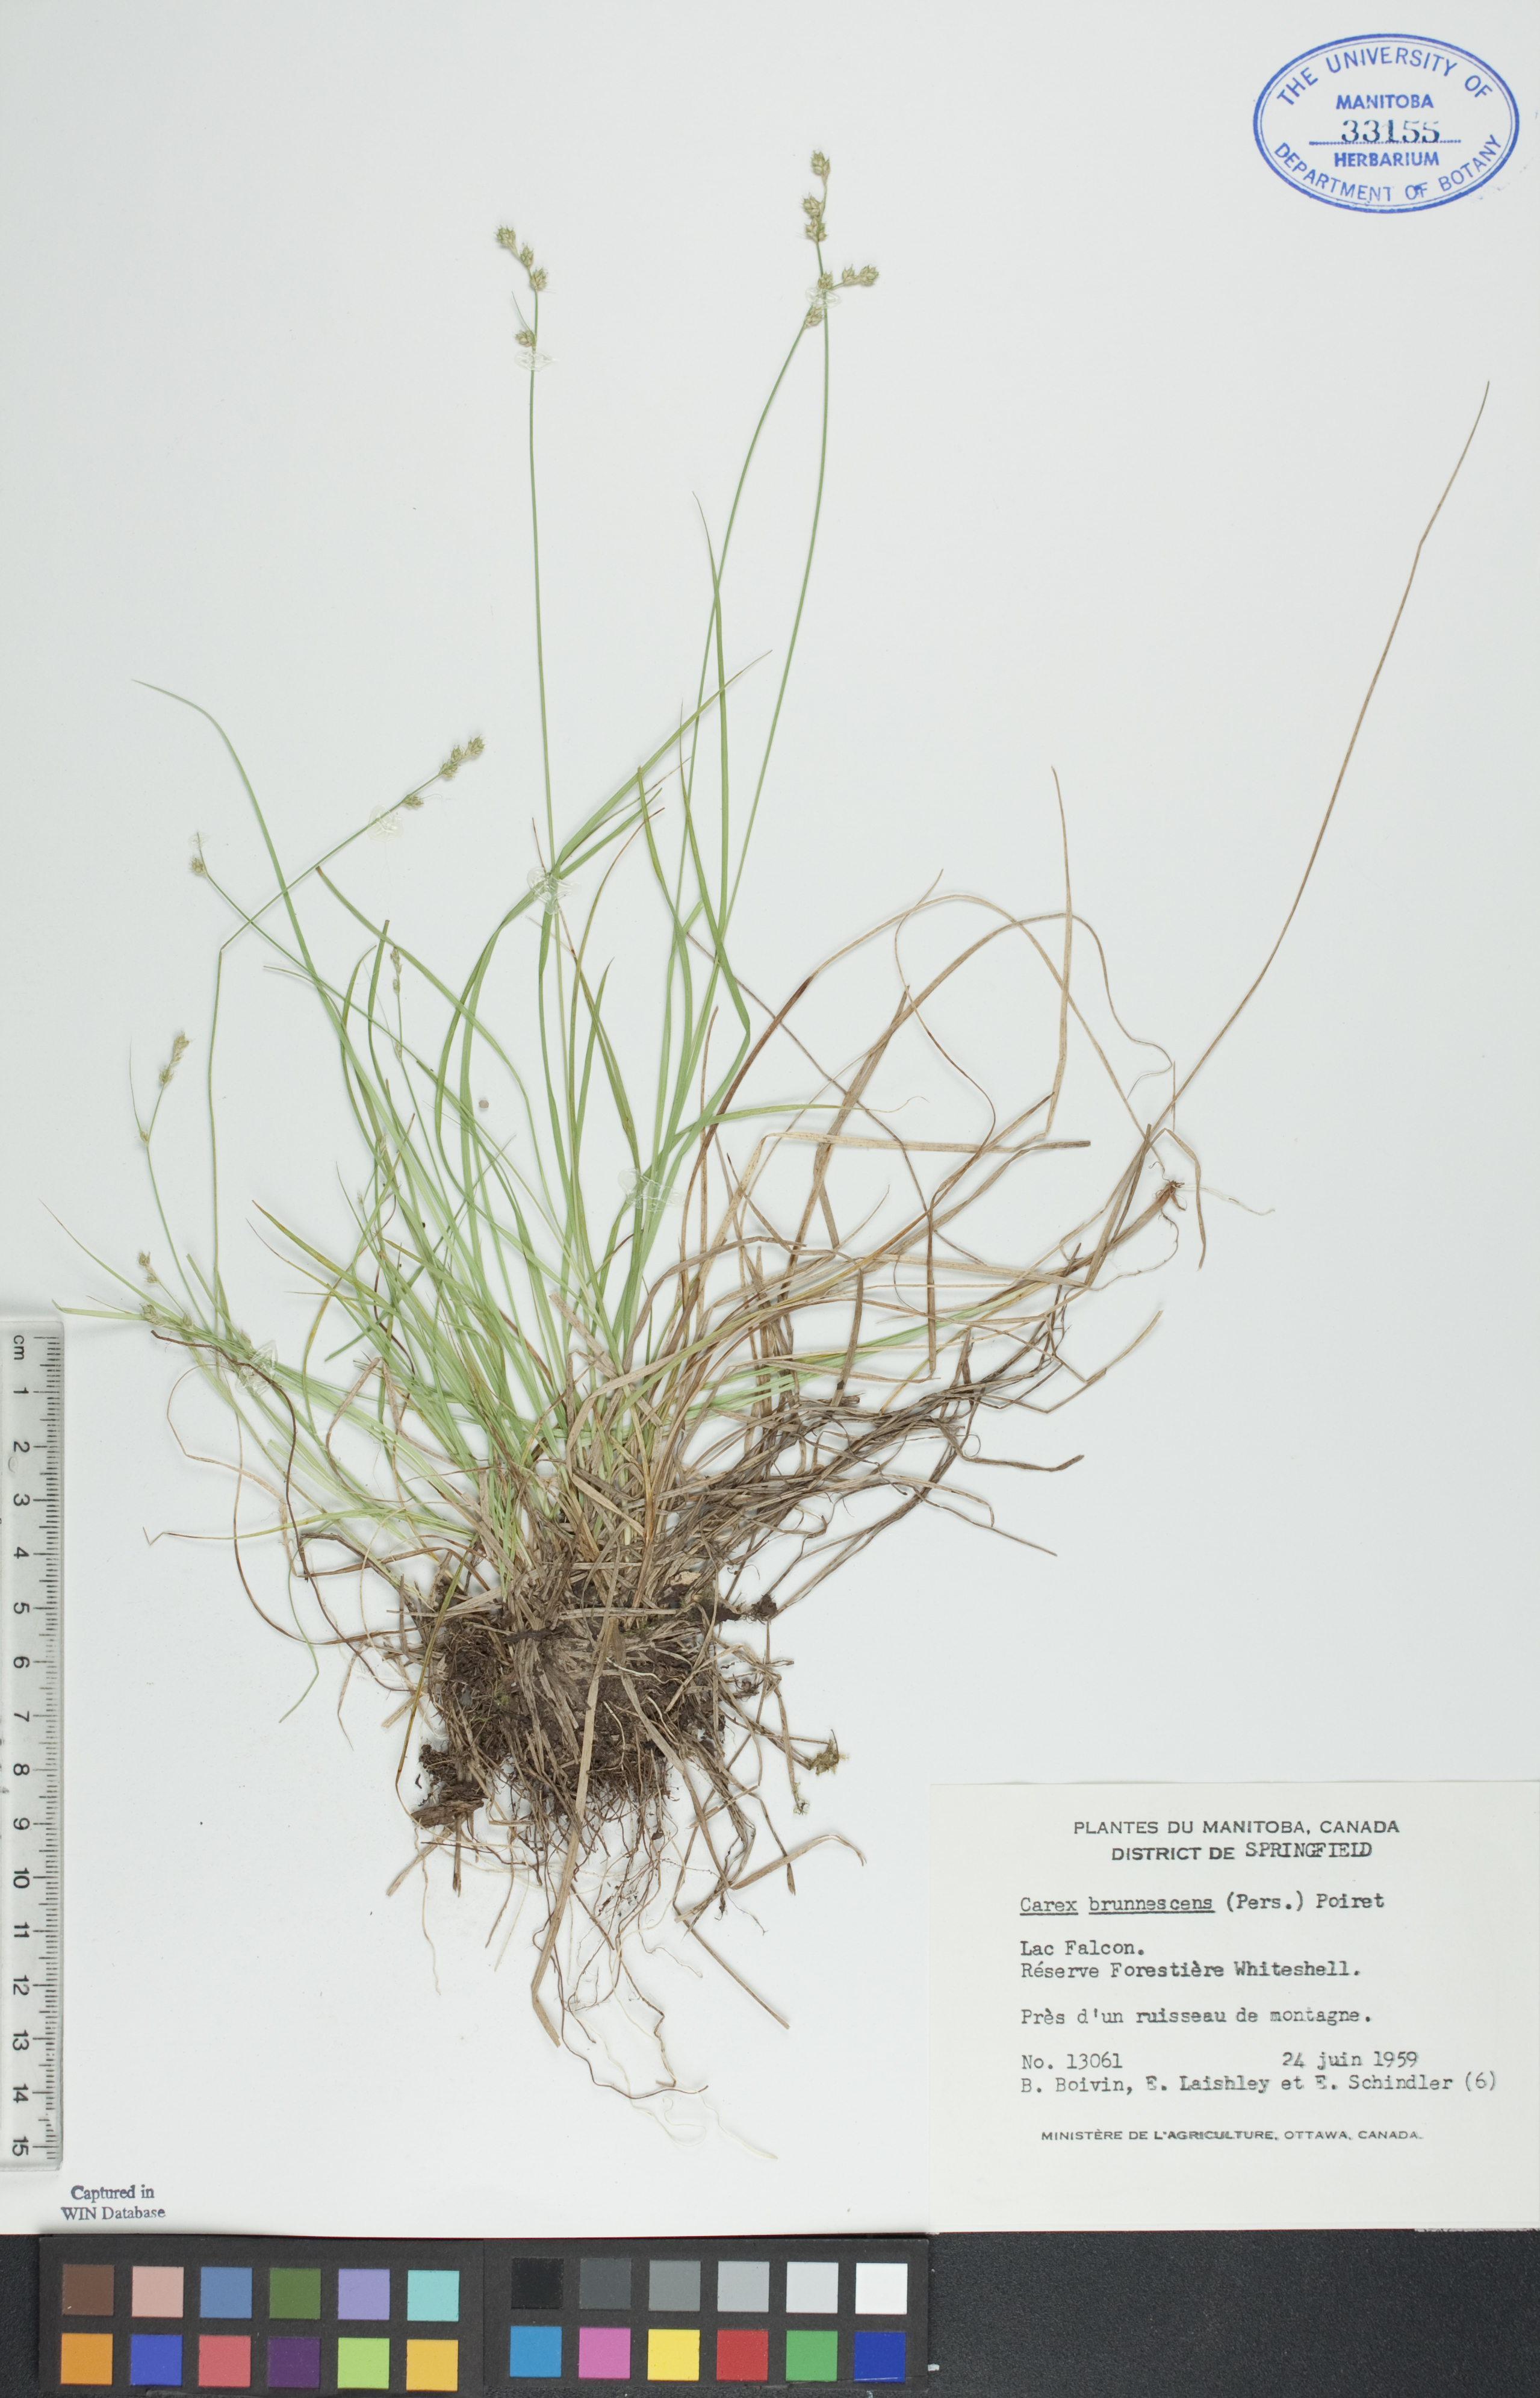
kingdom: Plantae
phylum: Tracheophyta
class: Liliopsida
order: Poales
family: Cyperaceae
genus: Carex
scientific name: Carex brunnescens
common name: Brown sedge
